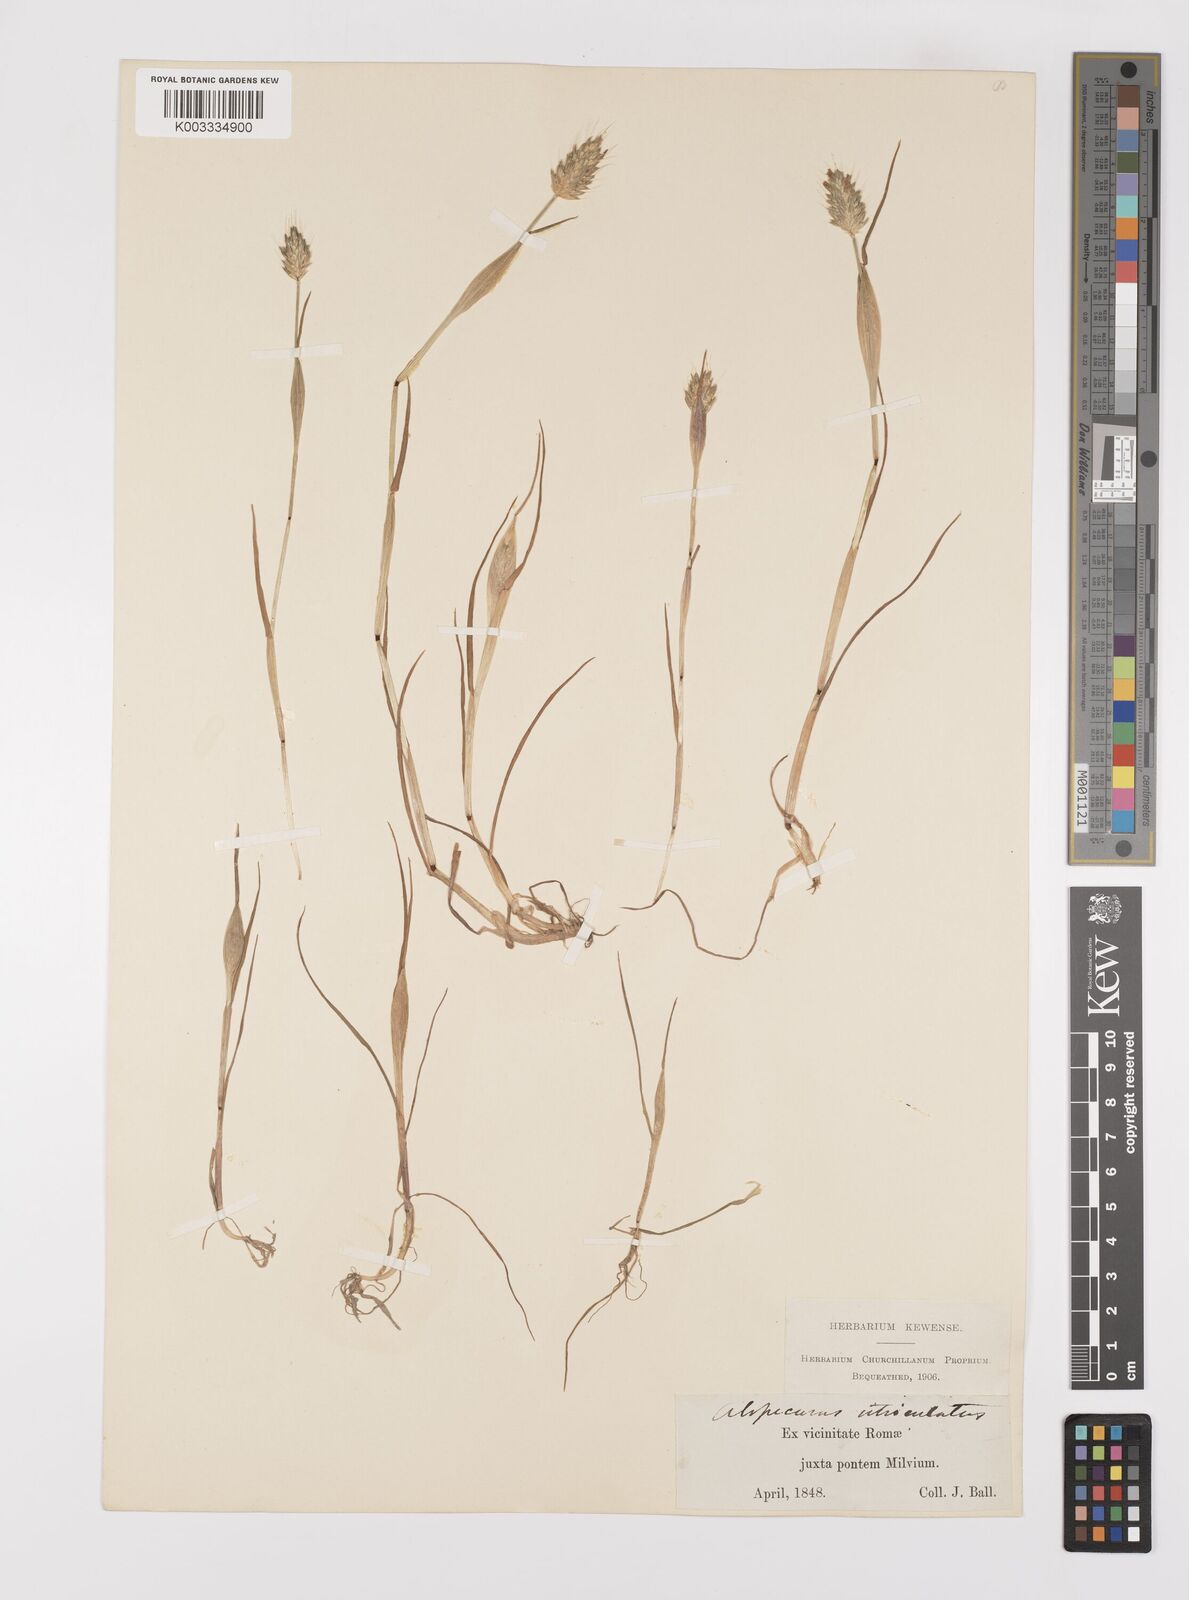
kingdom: Plantae
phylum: Tracheophyta
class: Liliopsida
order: Poales
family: Poaceae
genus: Alopecurus
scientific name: Alopecurus rendlei
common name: Rendle's meadow foxtail
